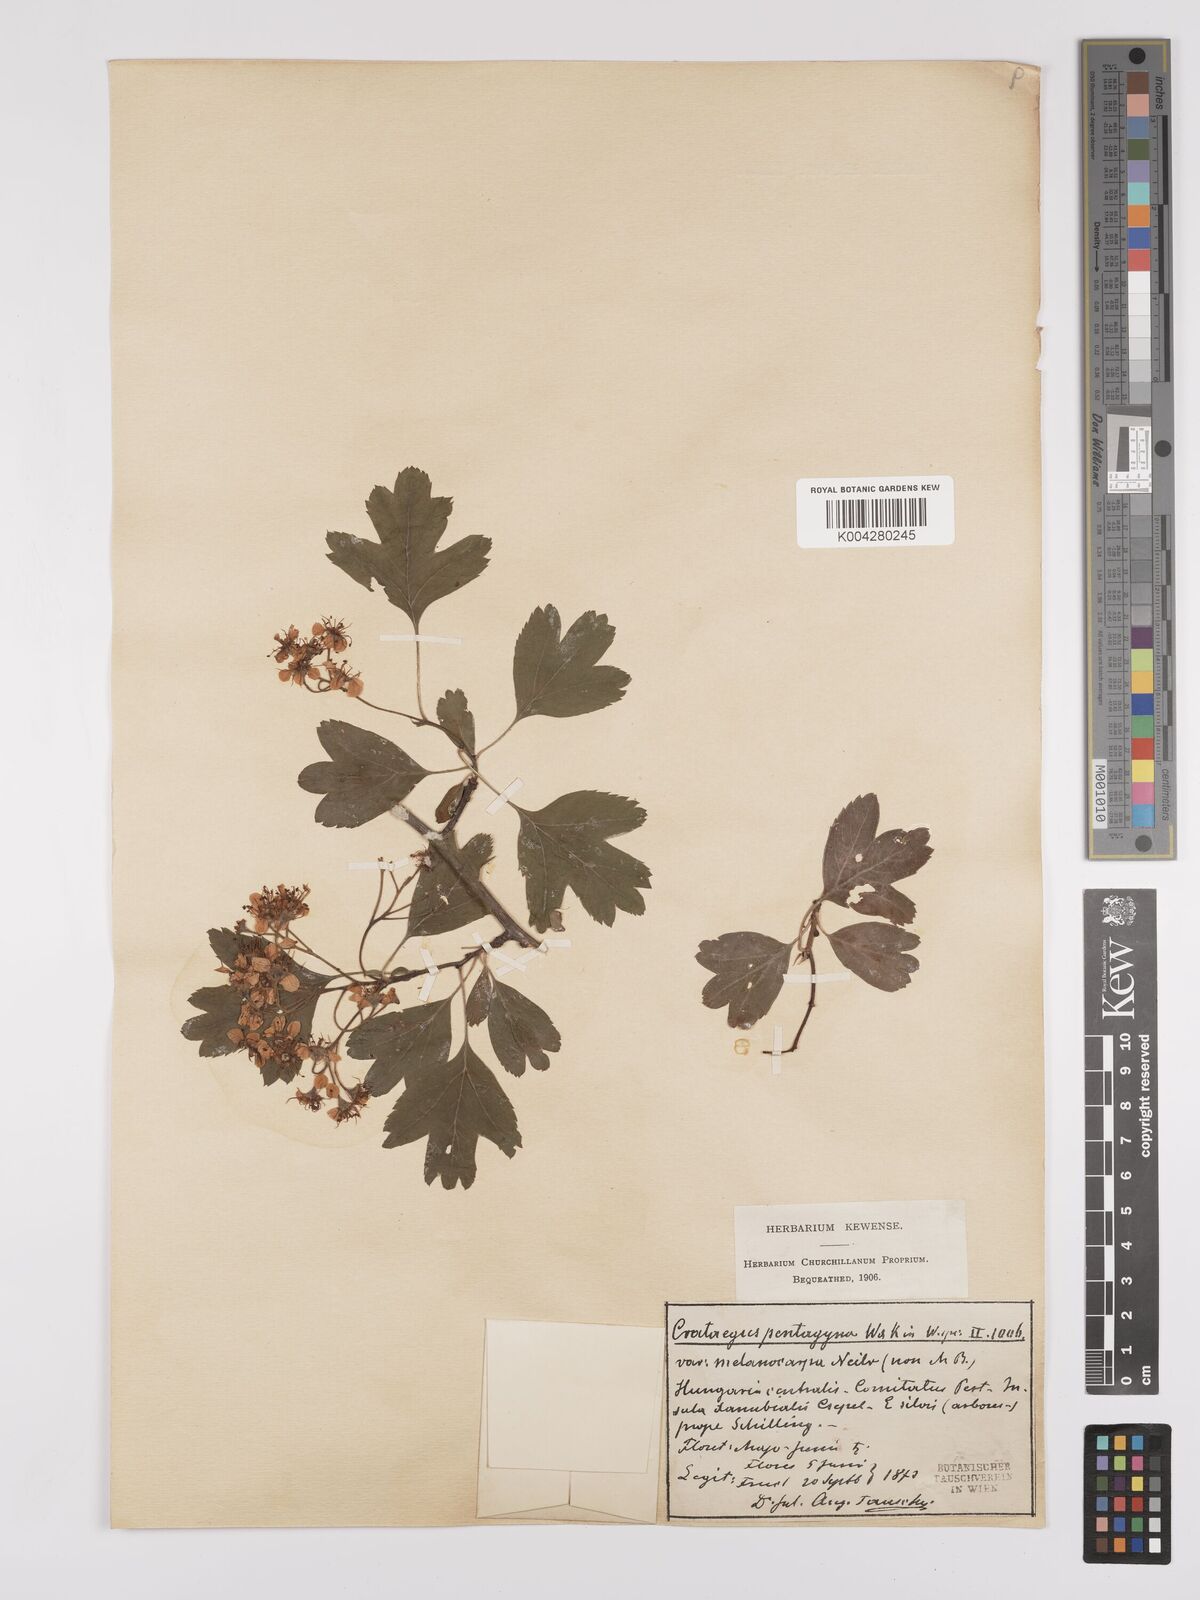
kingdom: Plantae
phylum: Tracheophyta
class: Magnoliopsida
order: Rosales
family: Rosaceae
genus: Crataegus
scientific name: Crataegus pentagyna
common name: Small-flowered black hawthorn
